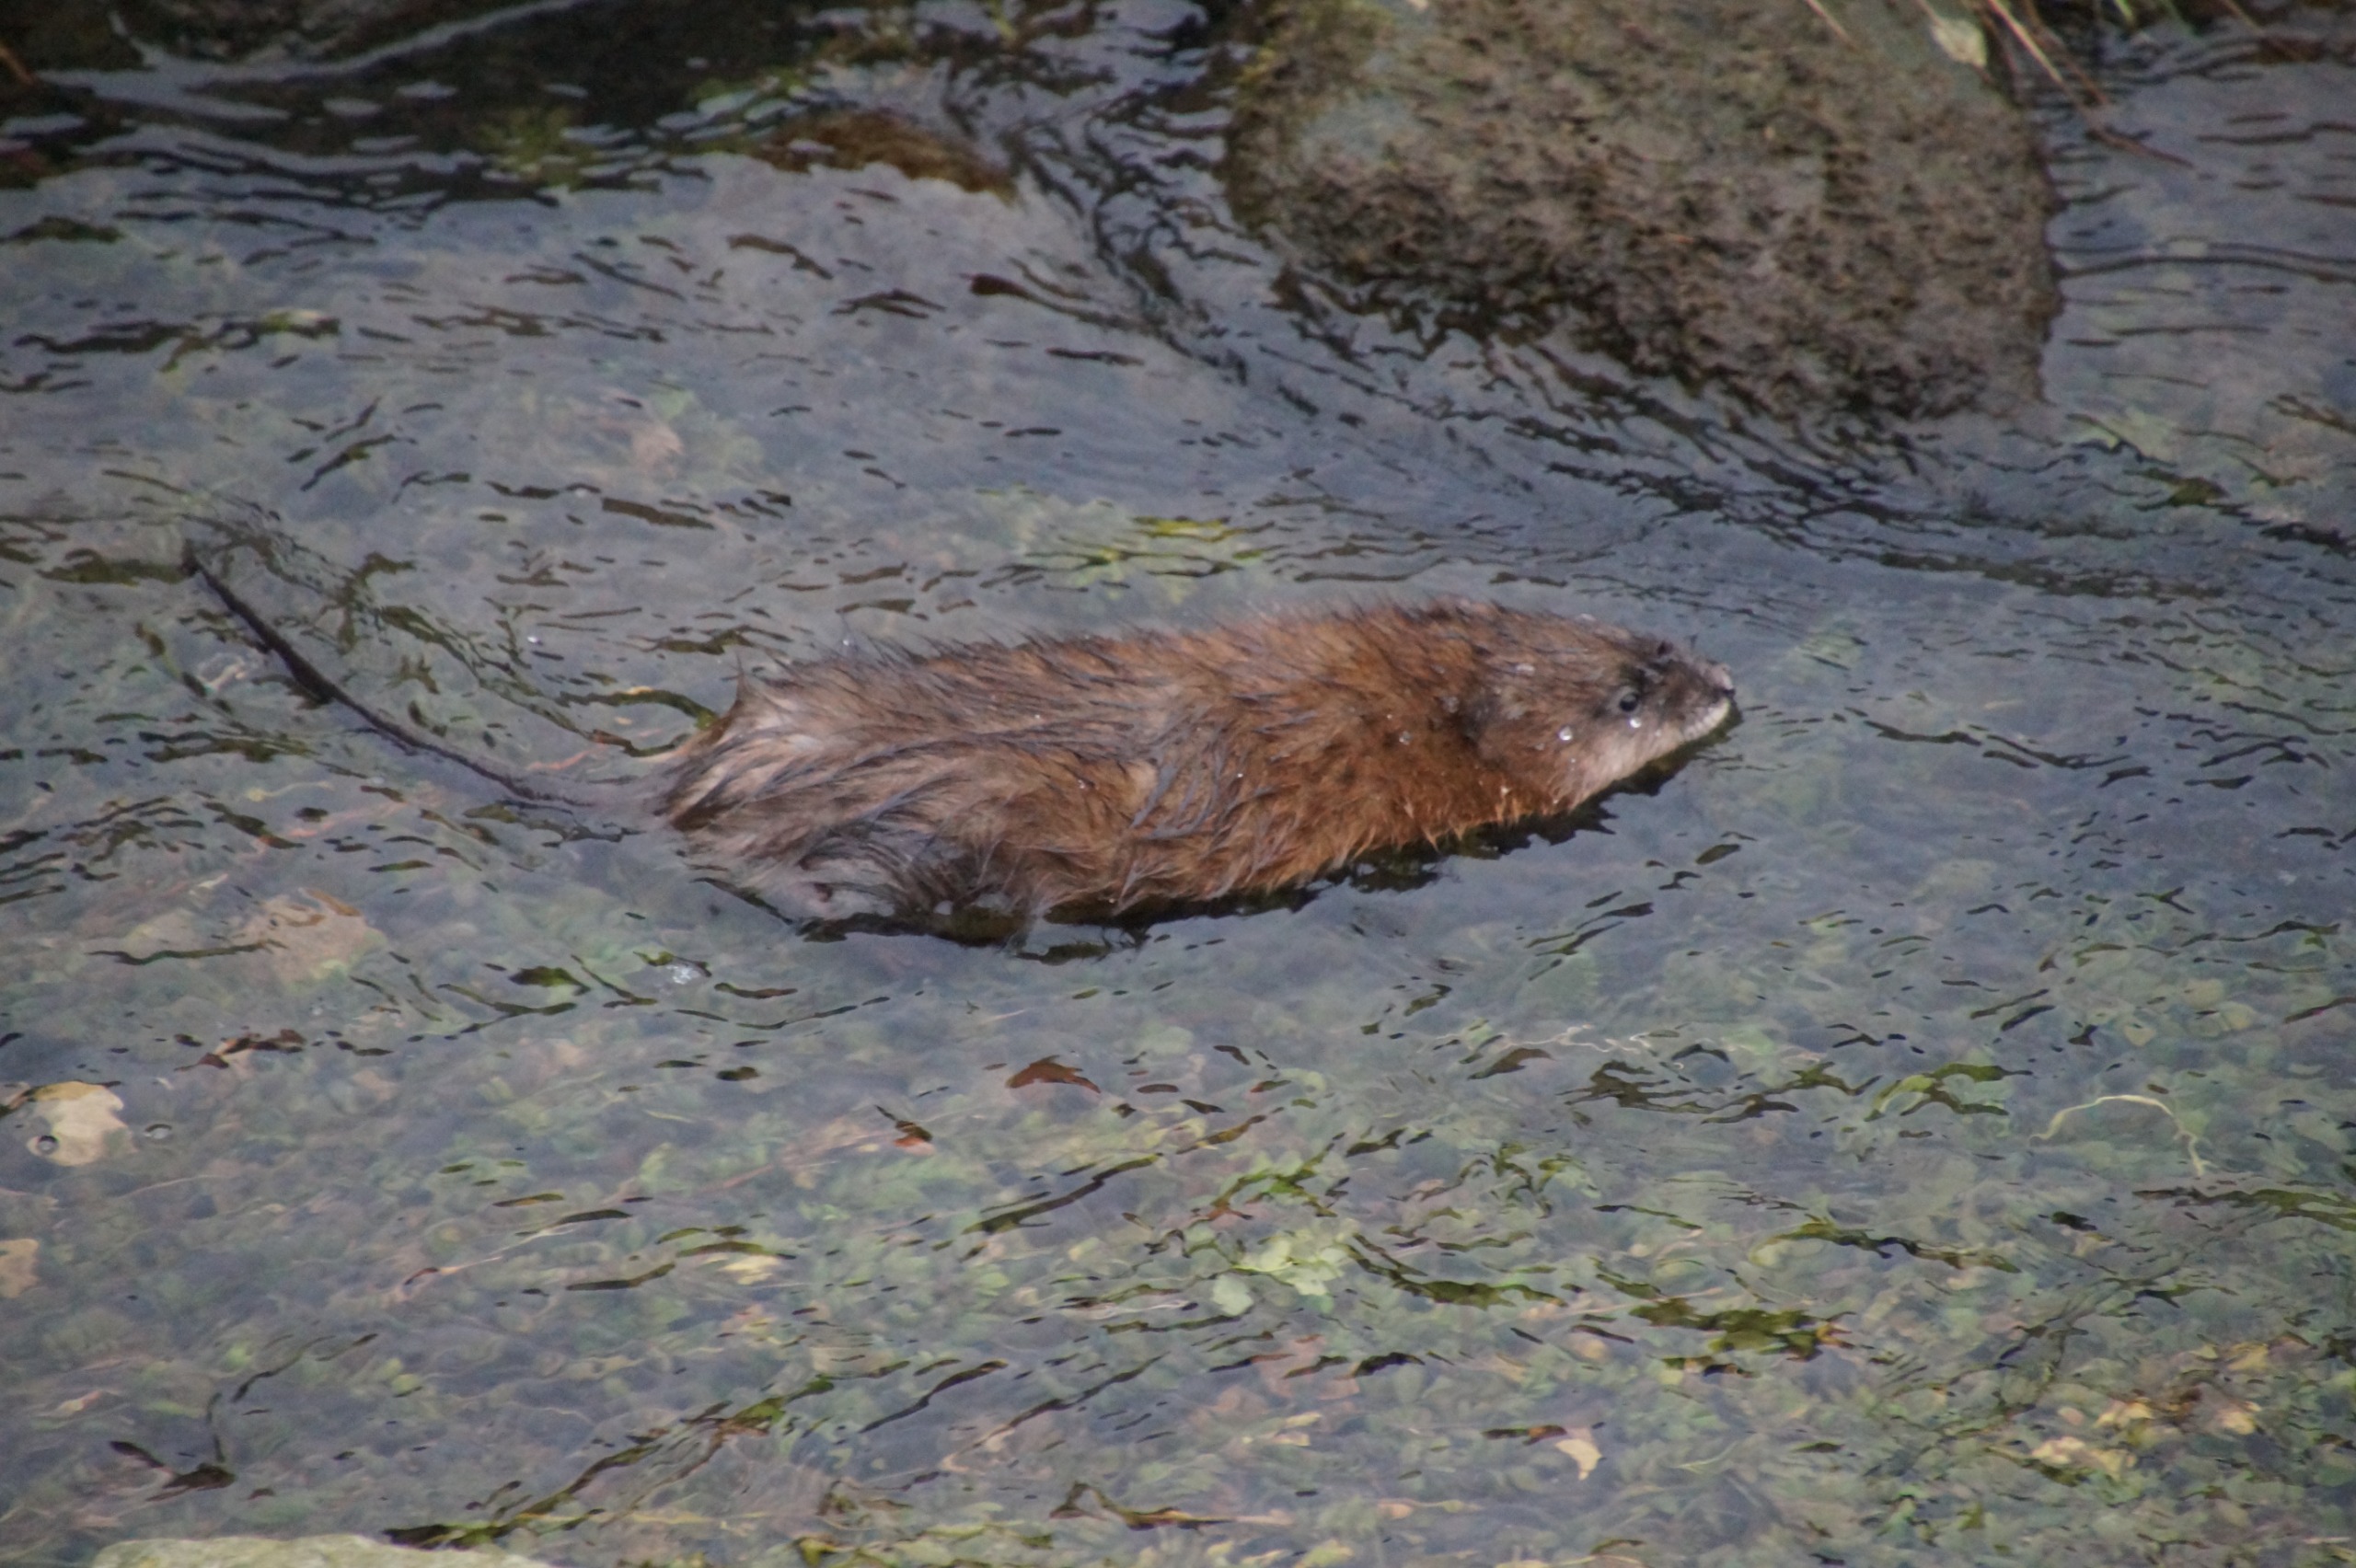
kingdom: Animalia
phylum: Chordata
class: Mammalia
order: Rodentia
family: Cricetidae
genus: Ondatra
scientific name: Ondatra zibethicus
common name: Bisamrotte
